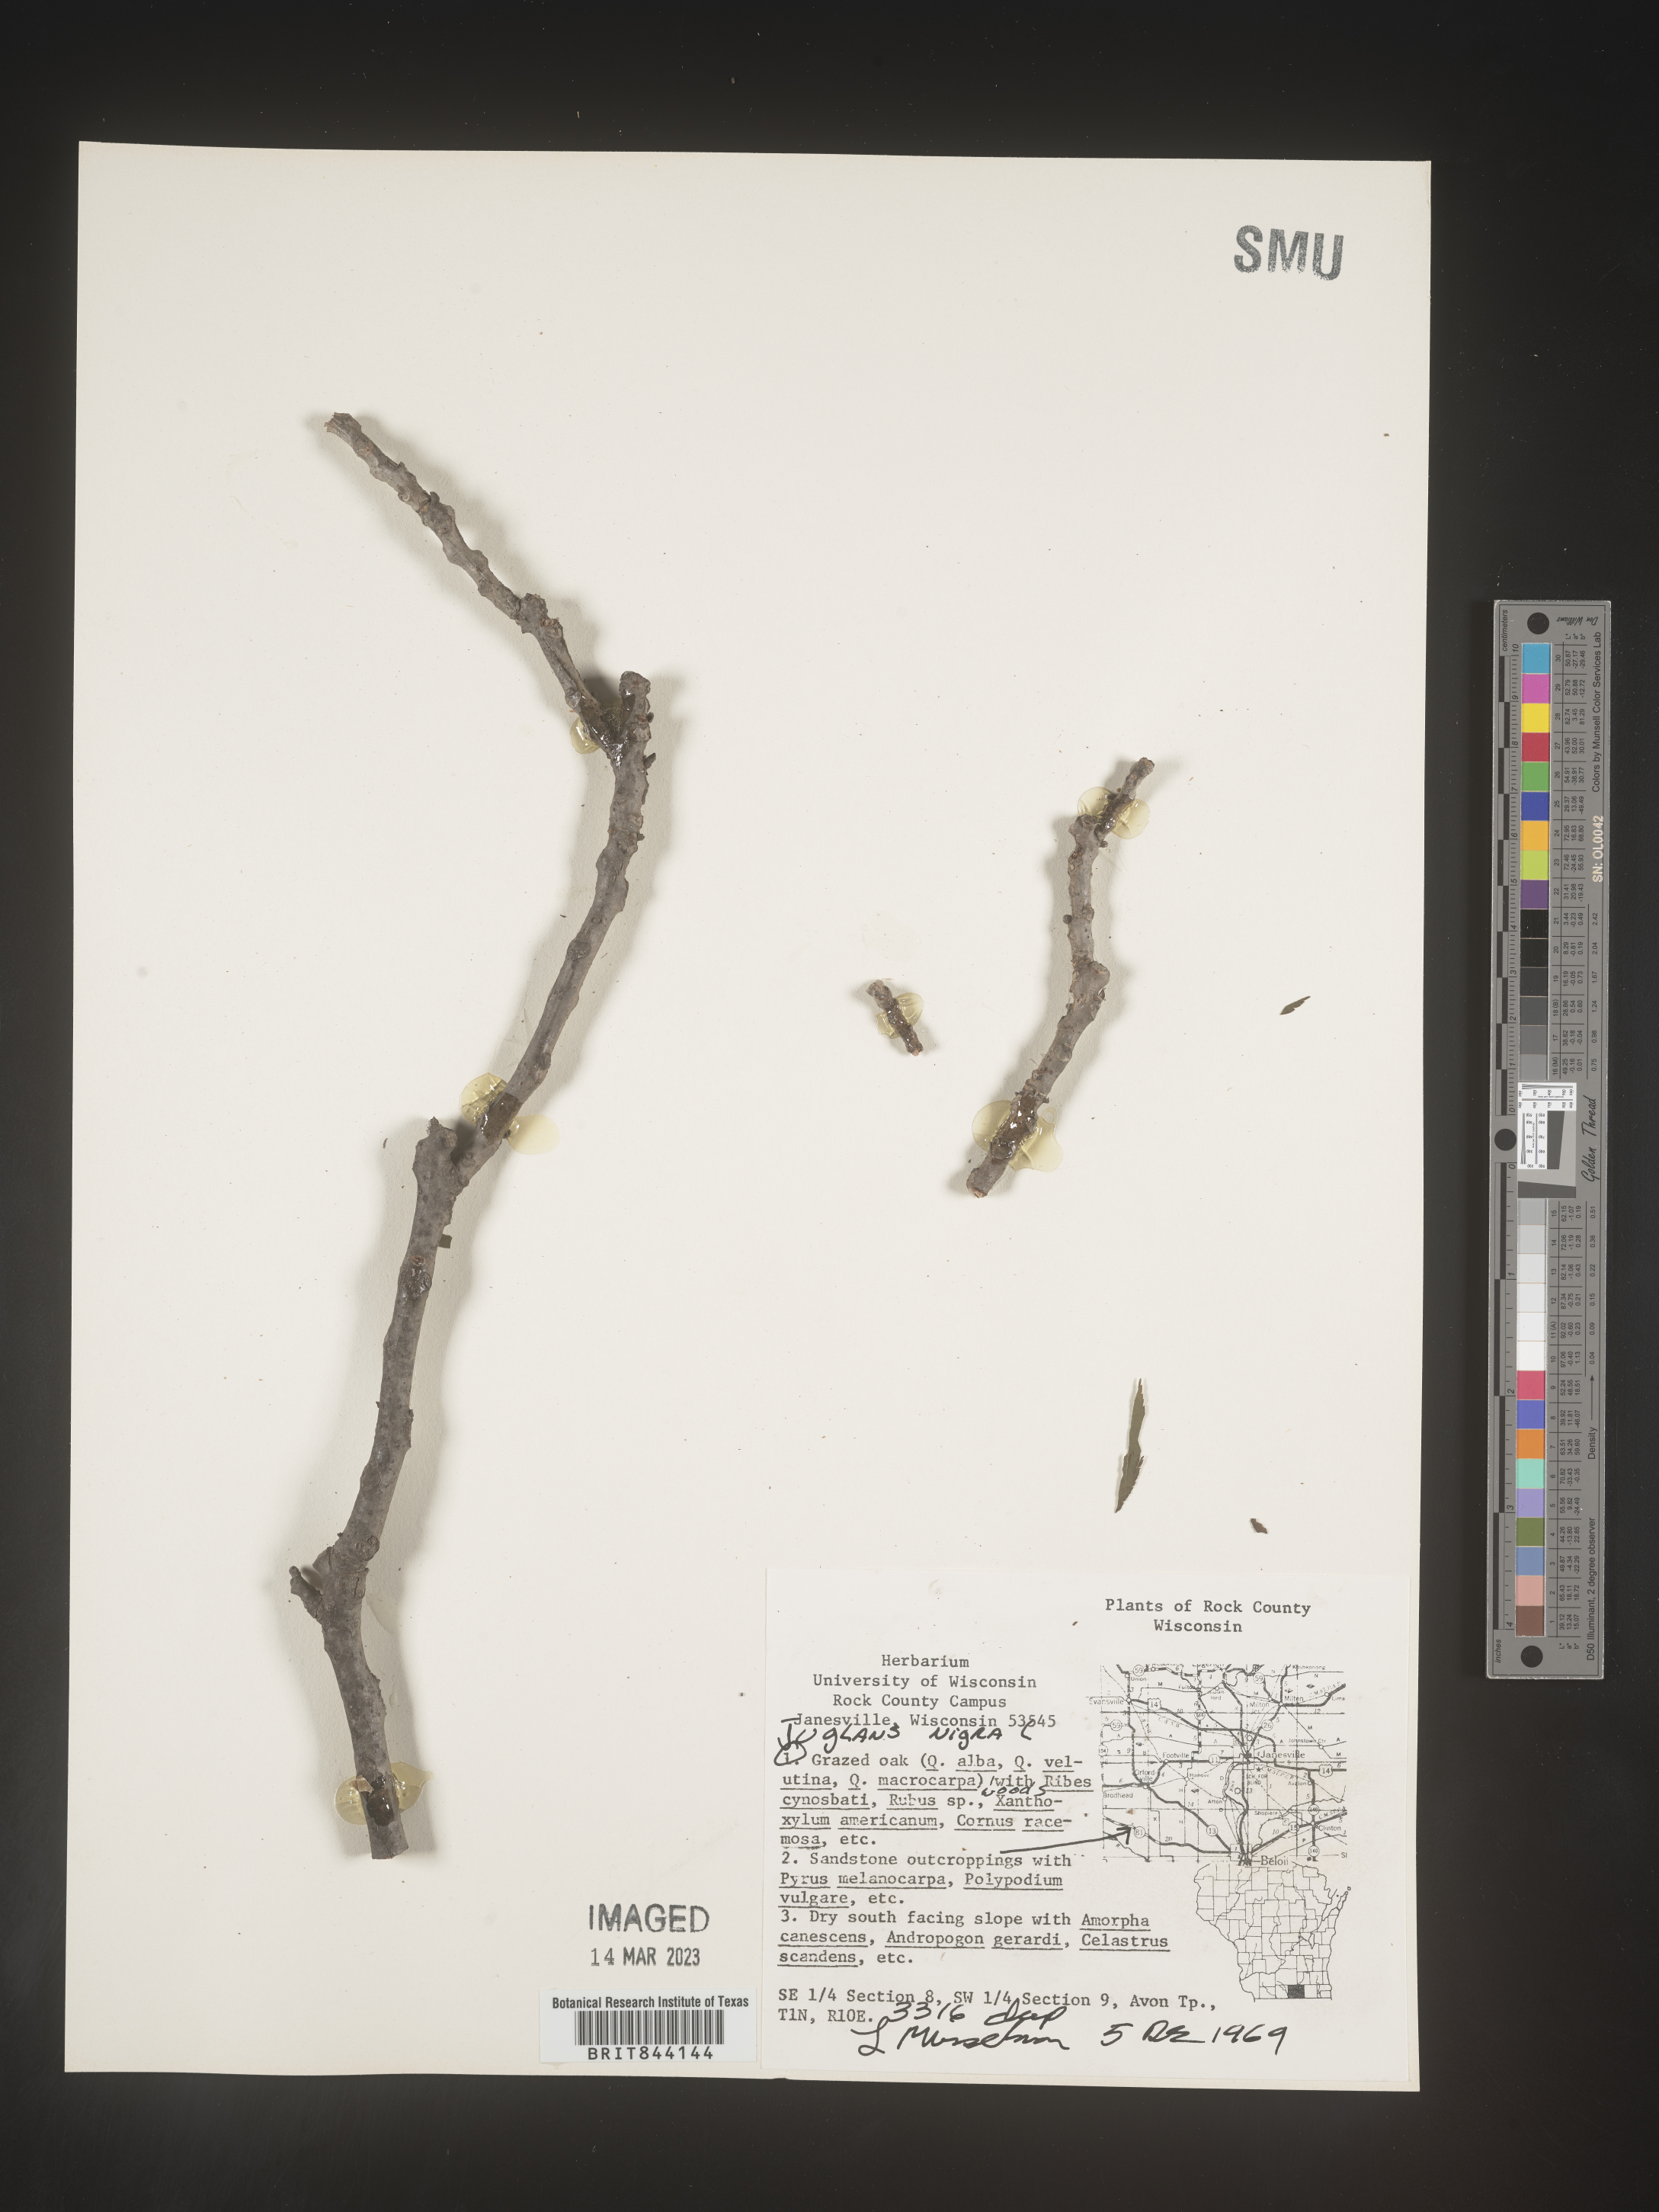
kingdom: Plantae
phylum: Tracheophyta
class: Magnoliopsida
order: Fagales
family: Juglandaceae
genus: Juglans
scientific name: Juglans nigra
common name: Black walnut
